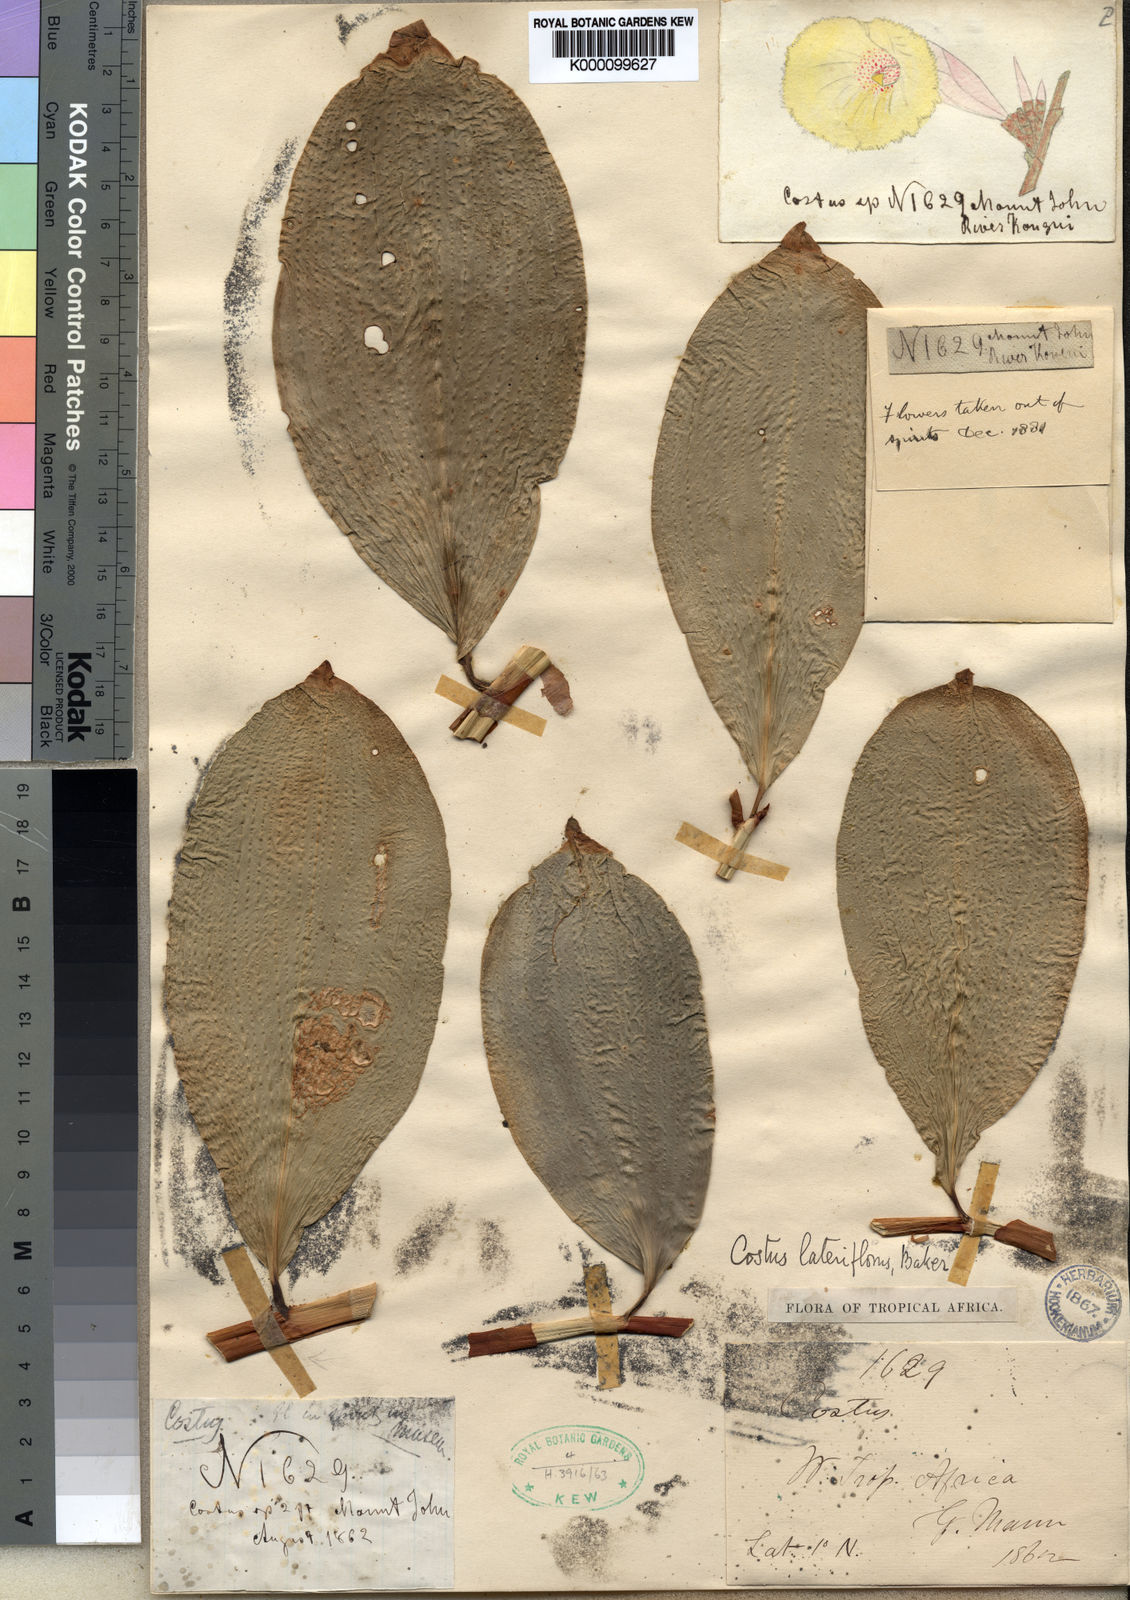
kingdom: Plantae
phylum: Tracheophyta
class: Liliopsida
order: Zingiberales
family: Costaceae
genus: Costus
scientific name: Costus lateriflorus
